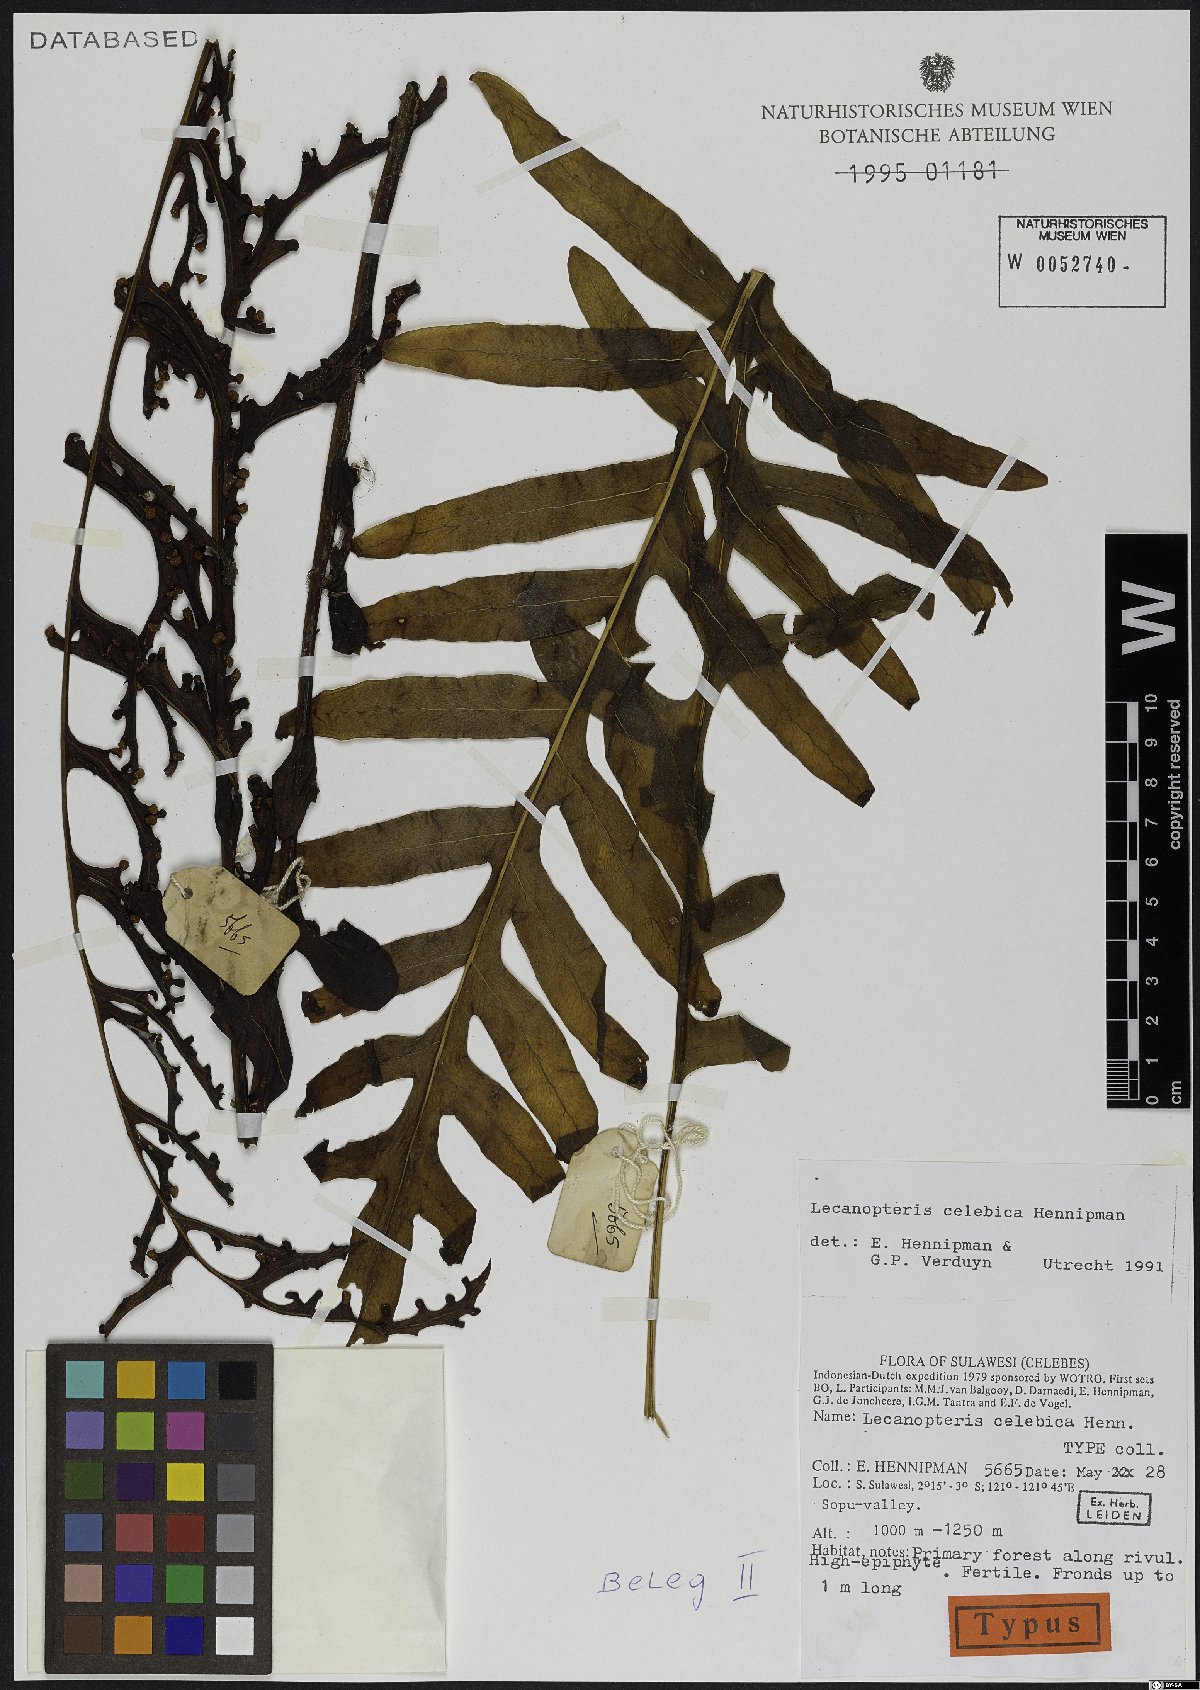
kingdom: Plantae
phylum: Tracheophyta
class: Polypodiopsida
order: Polypodiales
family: Polypodiaceae
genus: Lecanopteris
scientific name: Lecanopteris celebica
